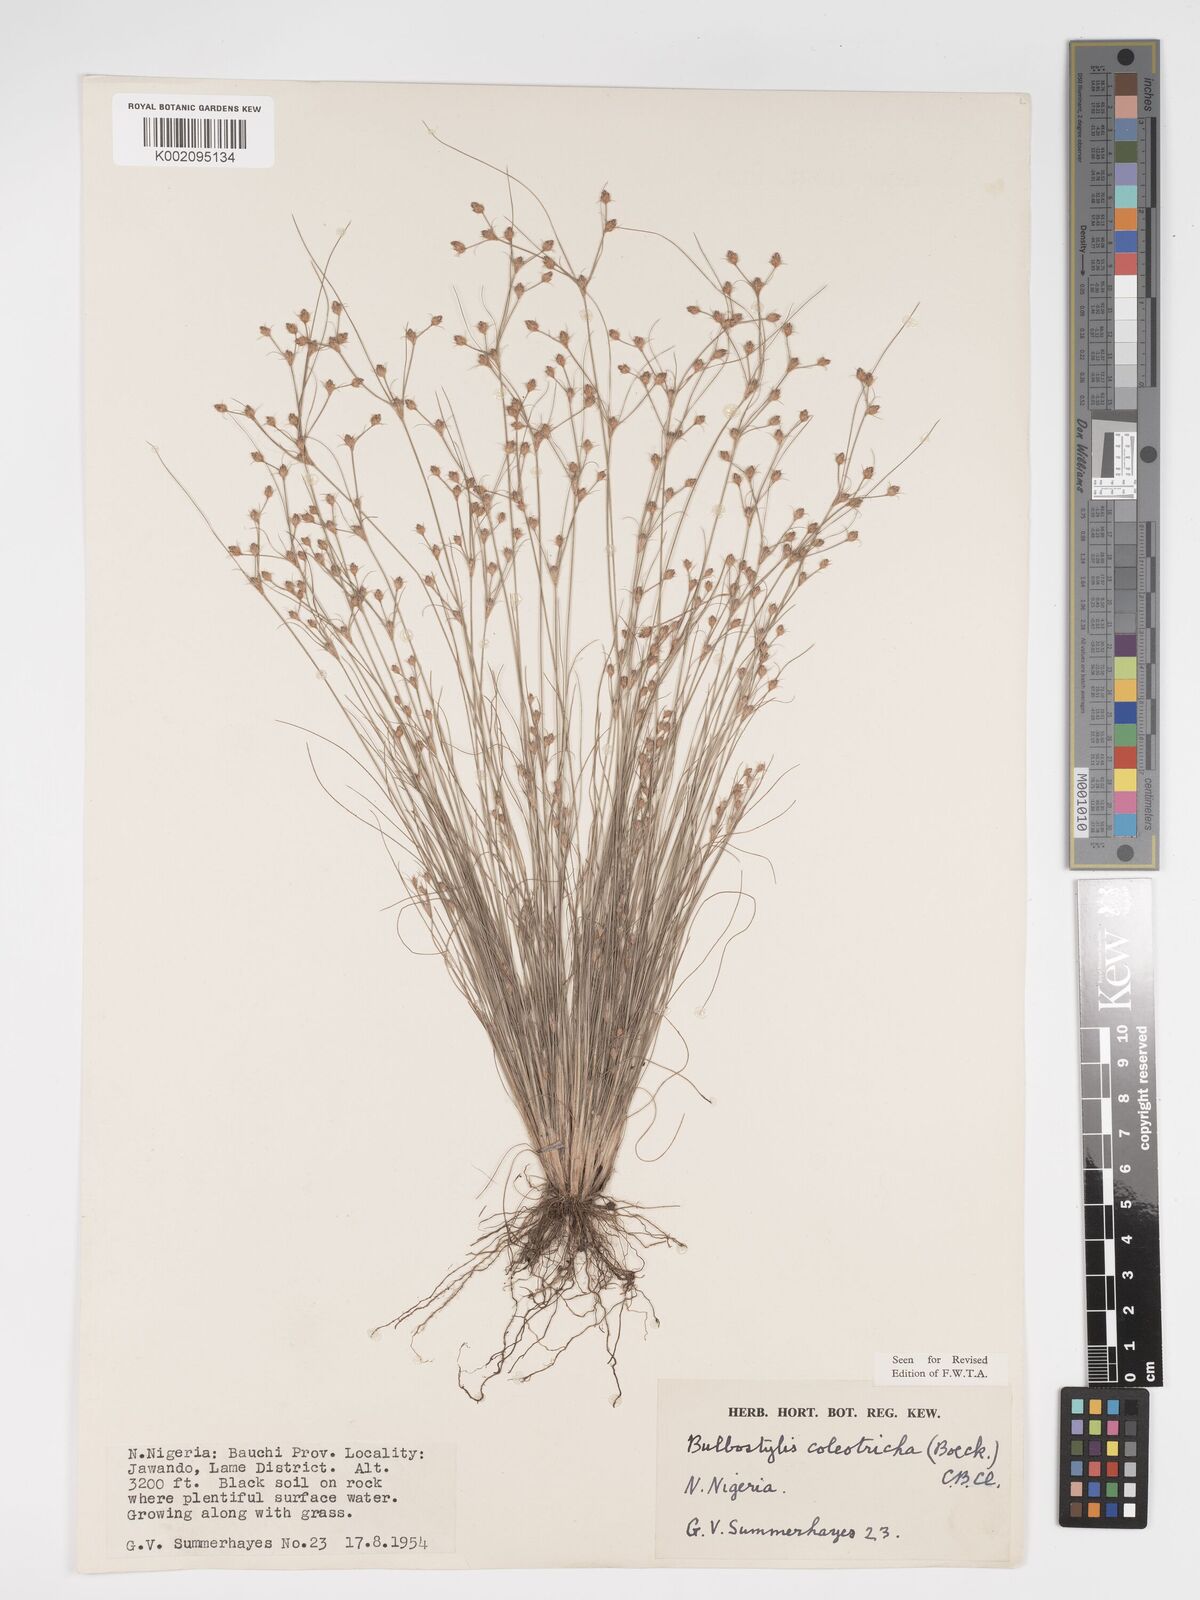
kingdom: Plantae
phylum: Tracheophyta
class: Liliopsida
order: Poales
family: Cyperaceae
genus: Bulbostylis
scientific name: Bulbostylis coleotricha
